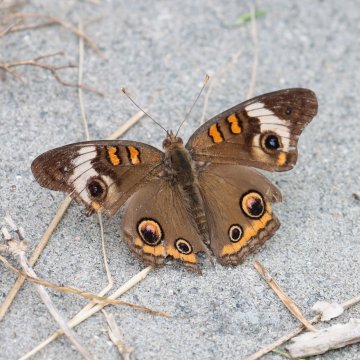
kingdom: Animalia
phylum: Arthropoda
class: Insecta
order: Lepidoptera
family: Nymphalidae
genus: Junonia
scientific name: Junonia coenia
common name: Common Buckeye
